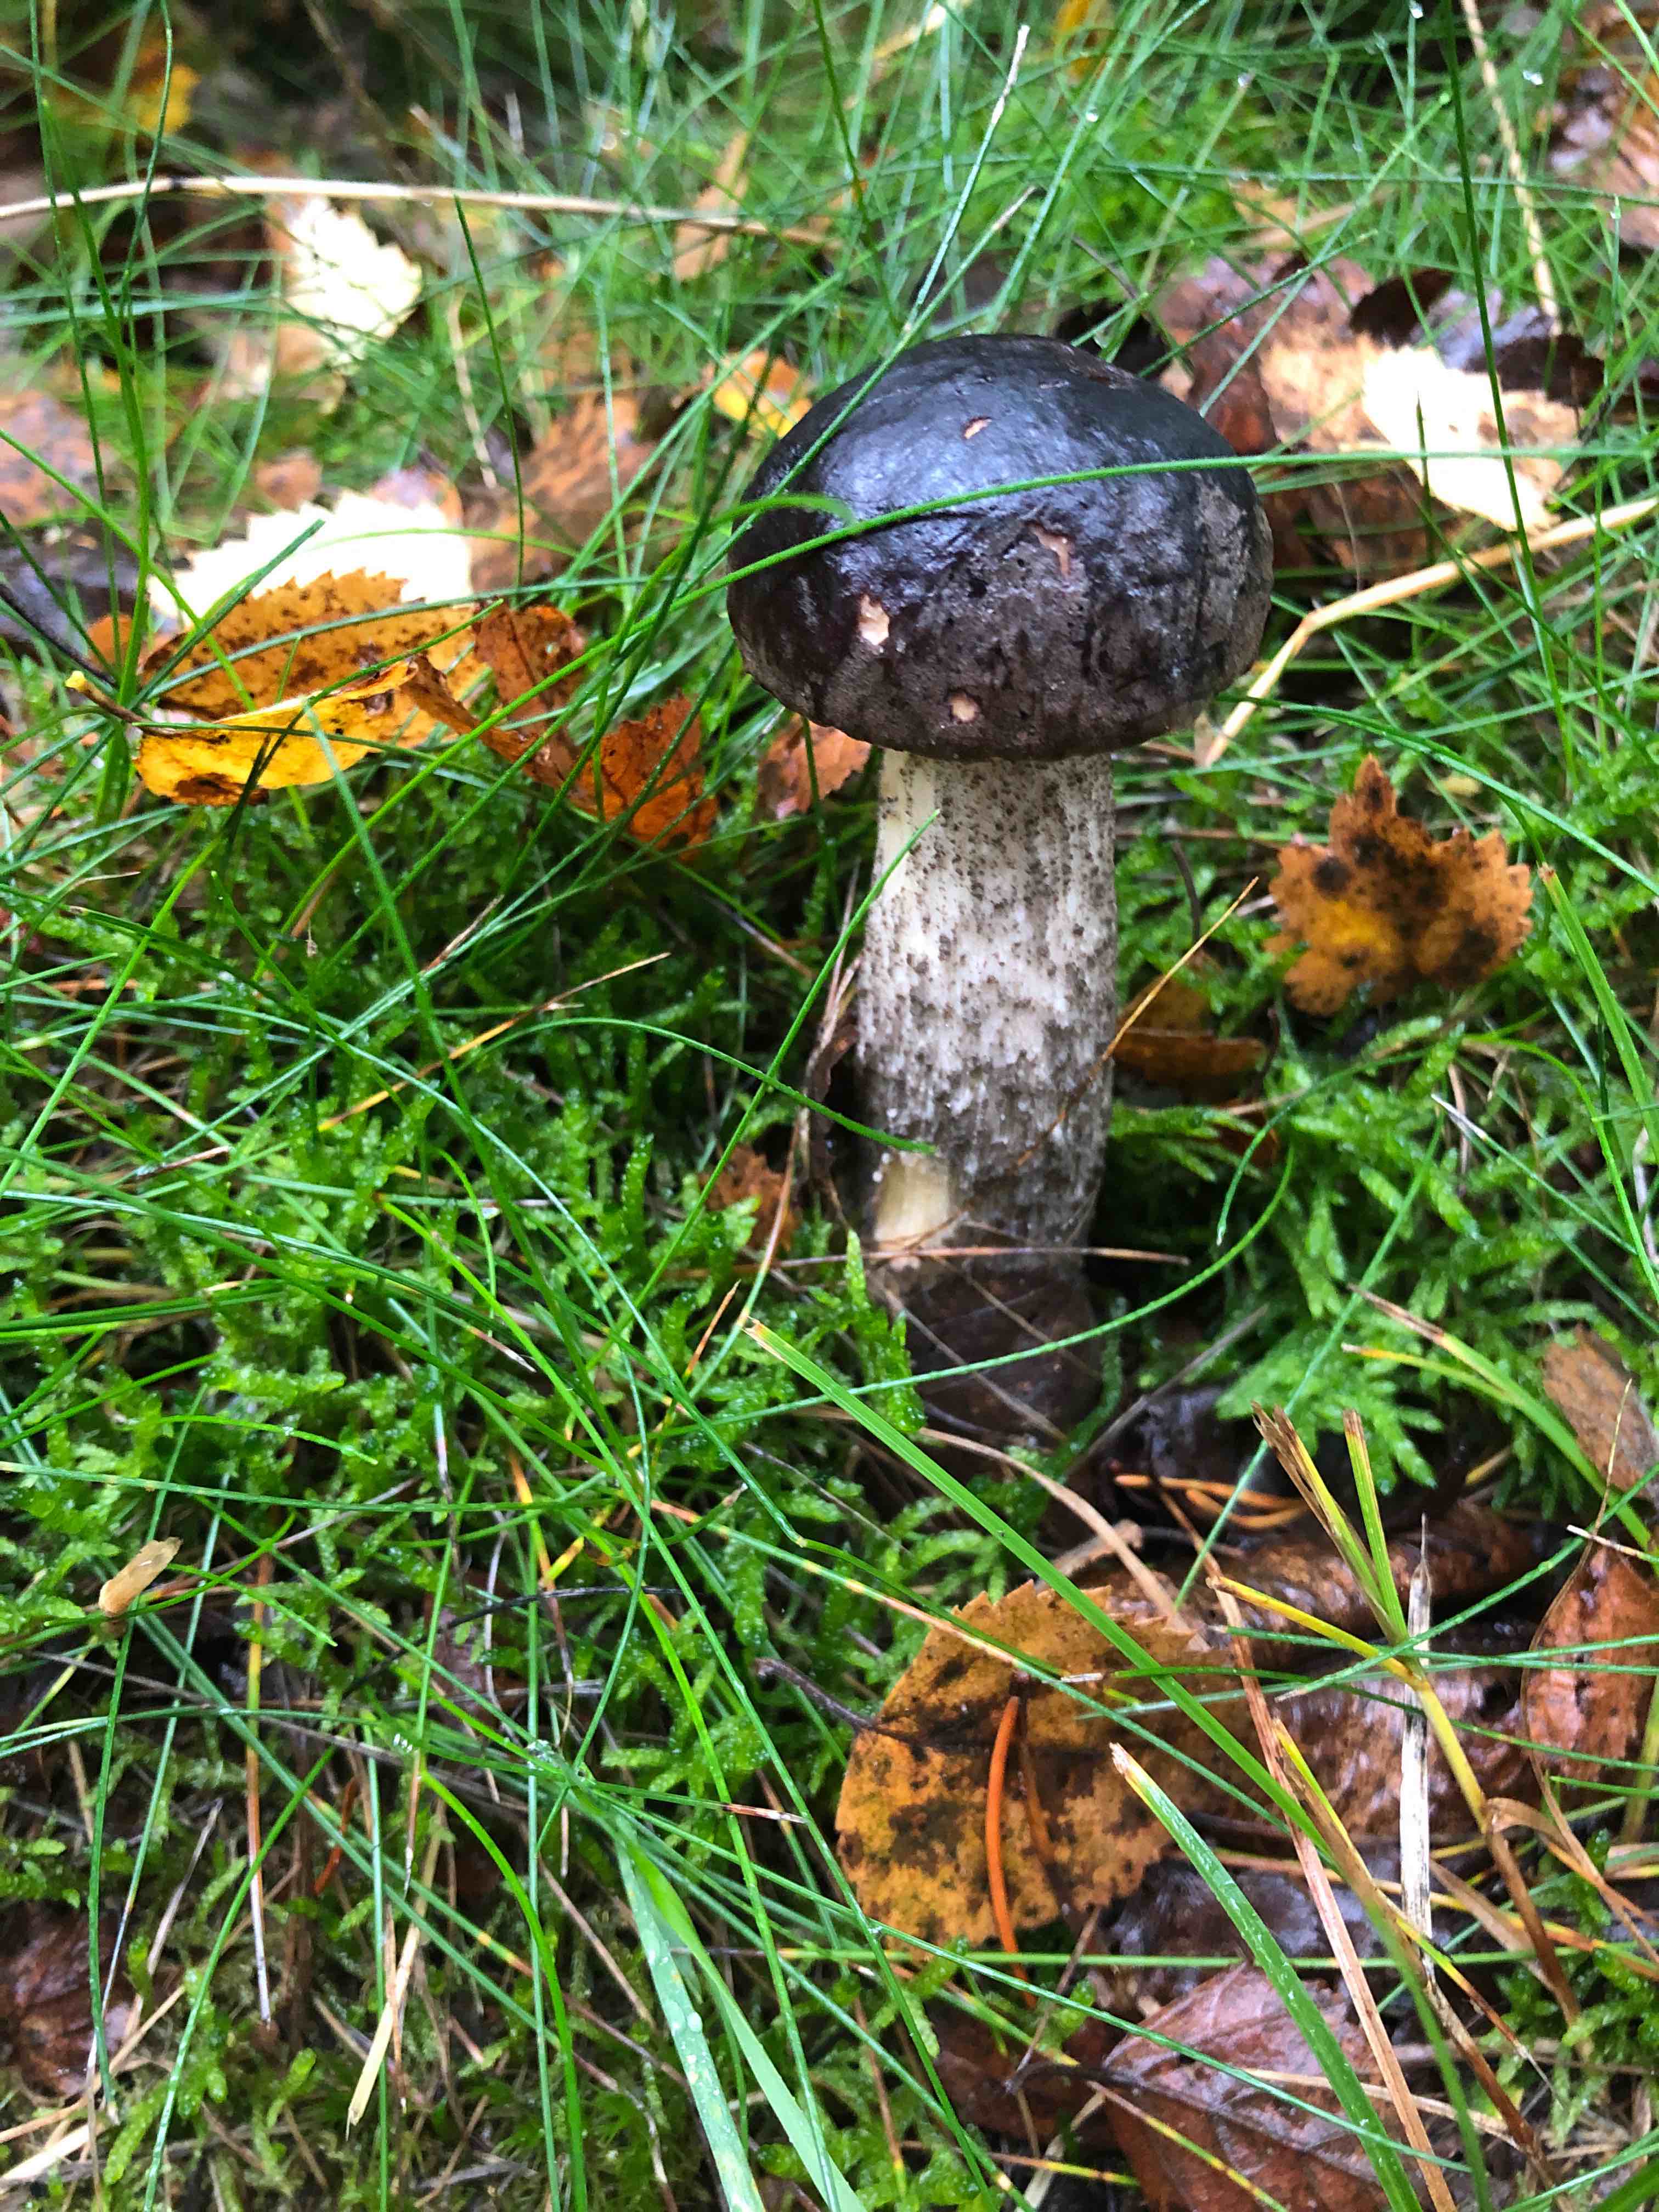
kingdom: Fungi
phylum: Basidiomycota
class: Agaricomycetes
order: Boletales
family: Boletaceae
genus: Leccinum
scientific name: Leccinum scabrum
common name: brun skælrørhat
